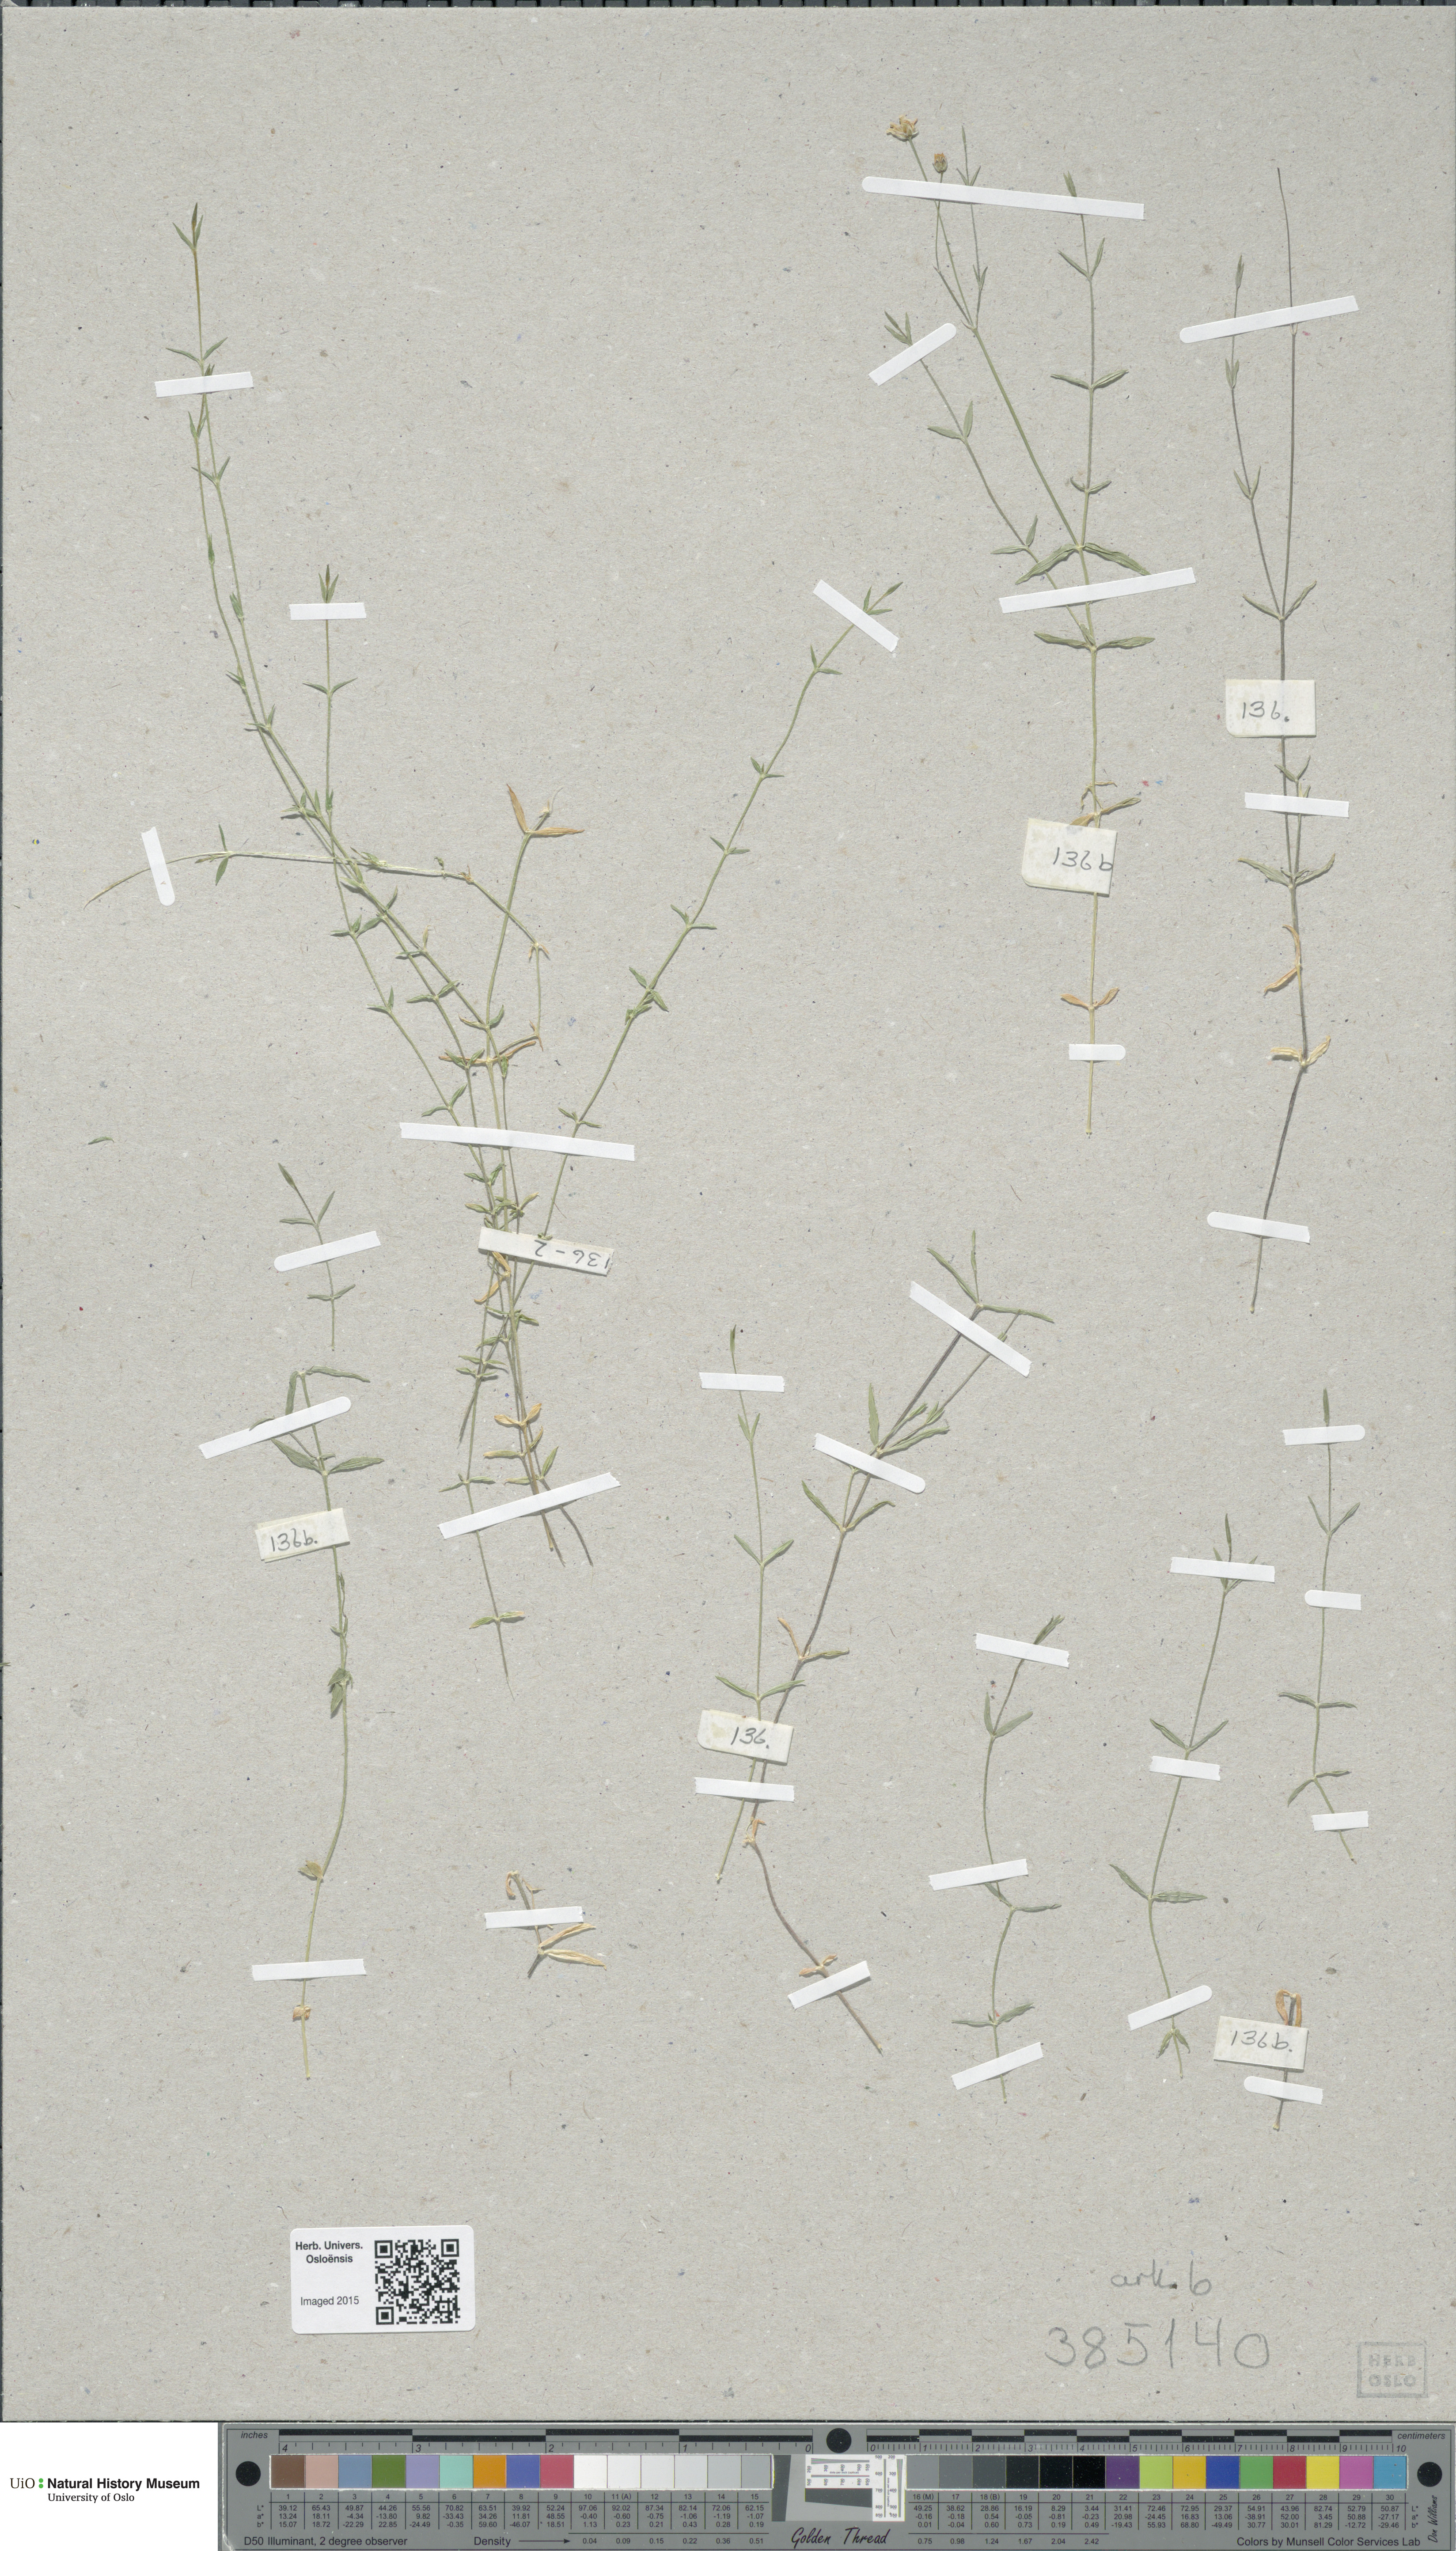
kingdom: Plantae
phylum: Tracheophyta
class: Magnoliopsida
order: Caryophyllales
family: Caryophyllaceae
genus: Stellaria
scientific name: Stellaria longipes
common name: Goldie's starwort
